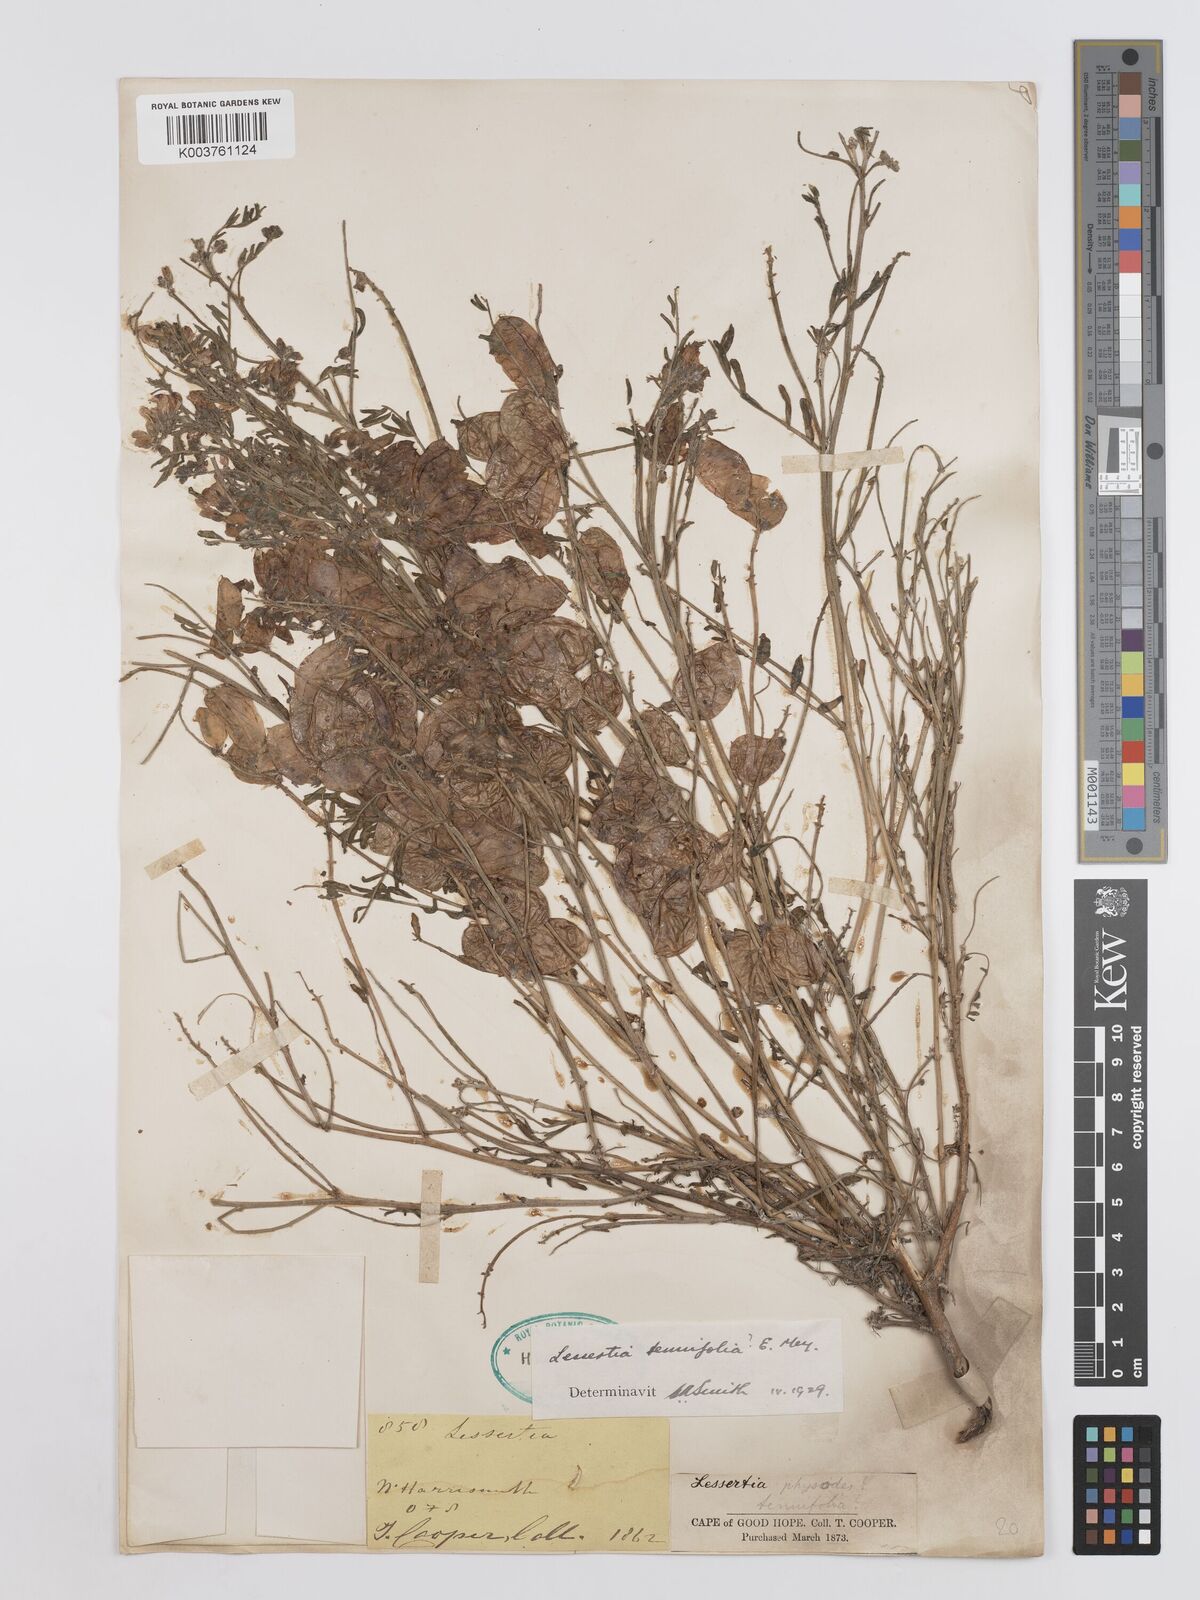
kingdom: Plantae
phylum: Tracheophyta
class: Magnoliopsida
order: Fabales
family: Fabaceae
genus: Lessertia
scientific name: Lessertia tenuifolia
